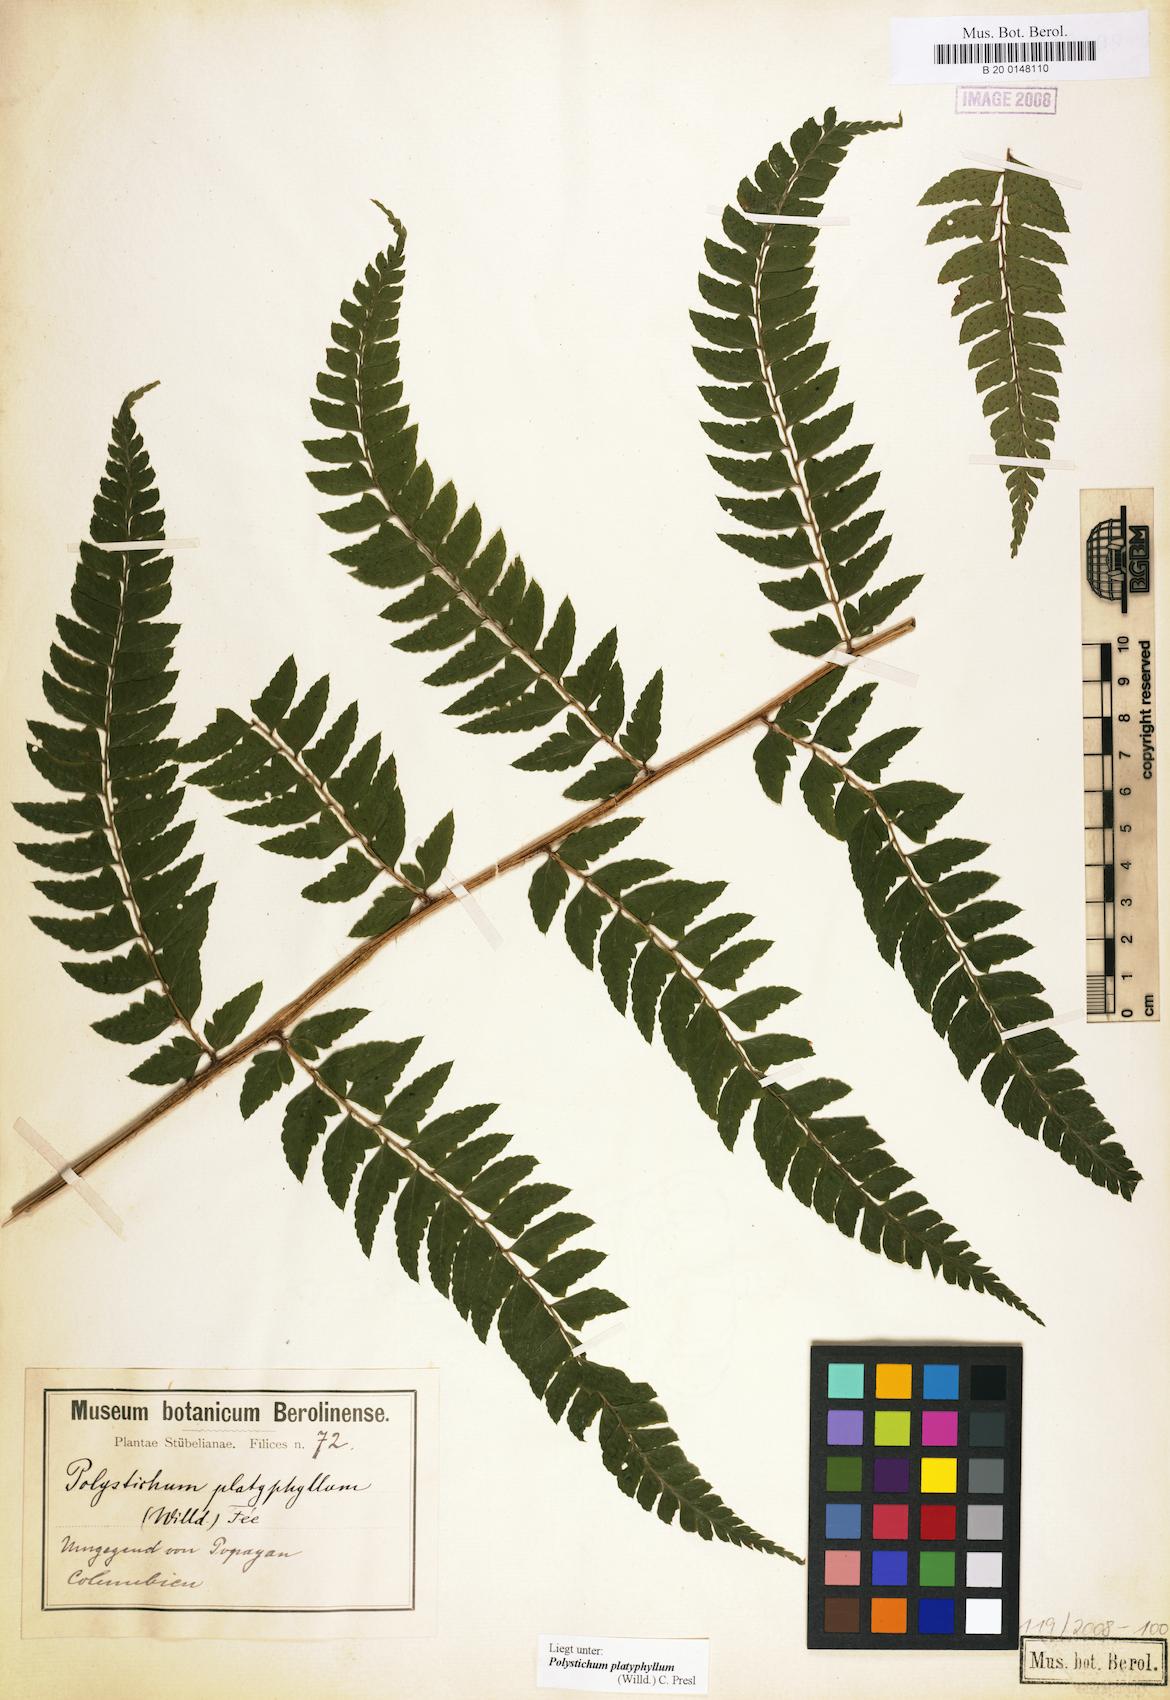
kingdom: Plantae
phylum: Tracheophyta
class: Polypodiopsida
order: Polypodiales
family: Dryopteridaceae
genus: Polystichum
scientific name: Polystichum platyphyllum
